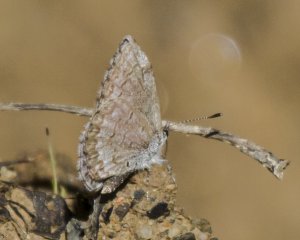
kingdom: Animalia
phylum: Arthropoda
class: Insecta
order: Lepidoptera
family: Lycaenidae
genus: Celastrina
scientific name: Celastrina lucia
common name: Northern Spring Azure
